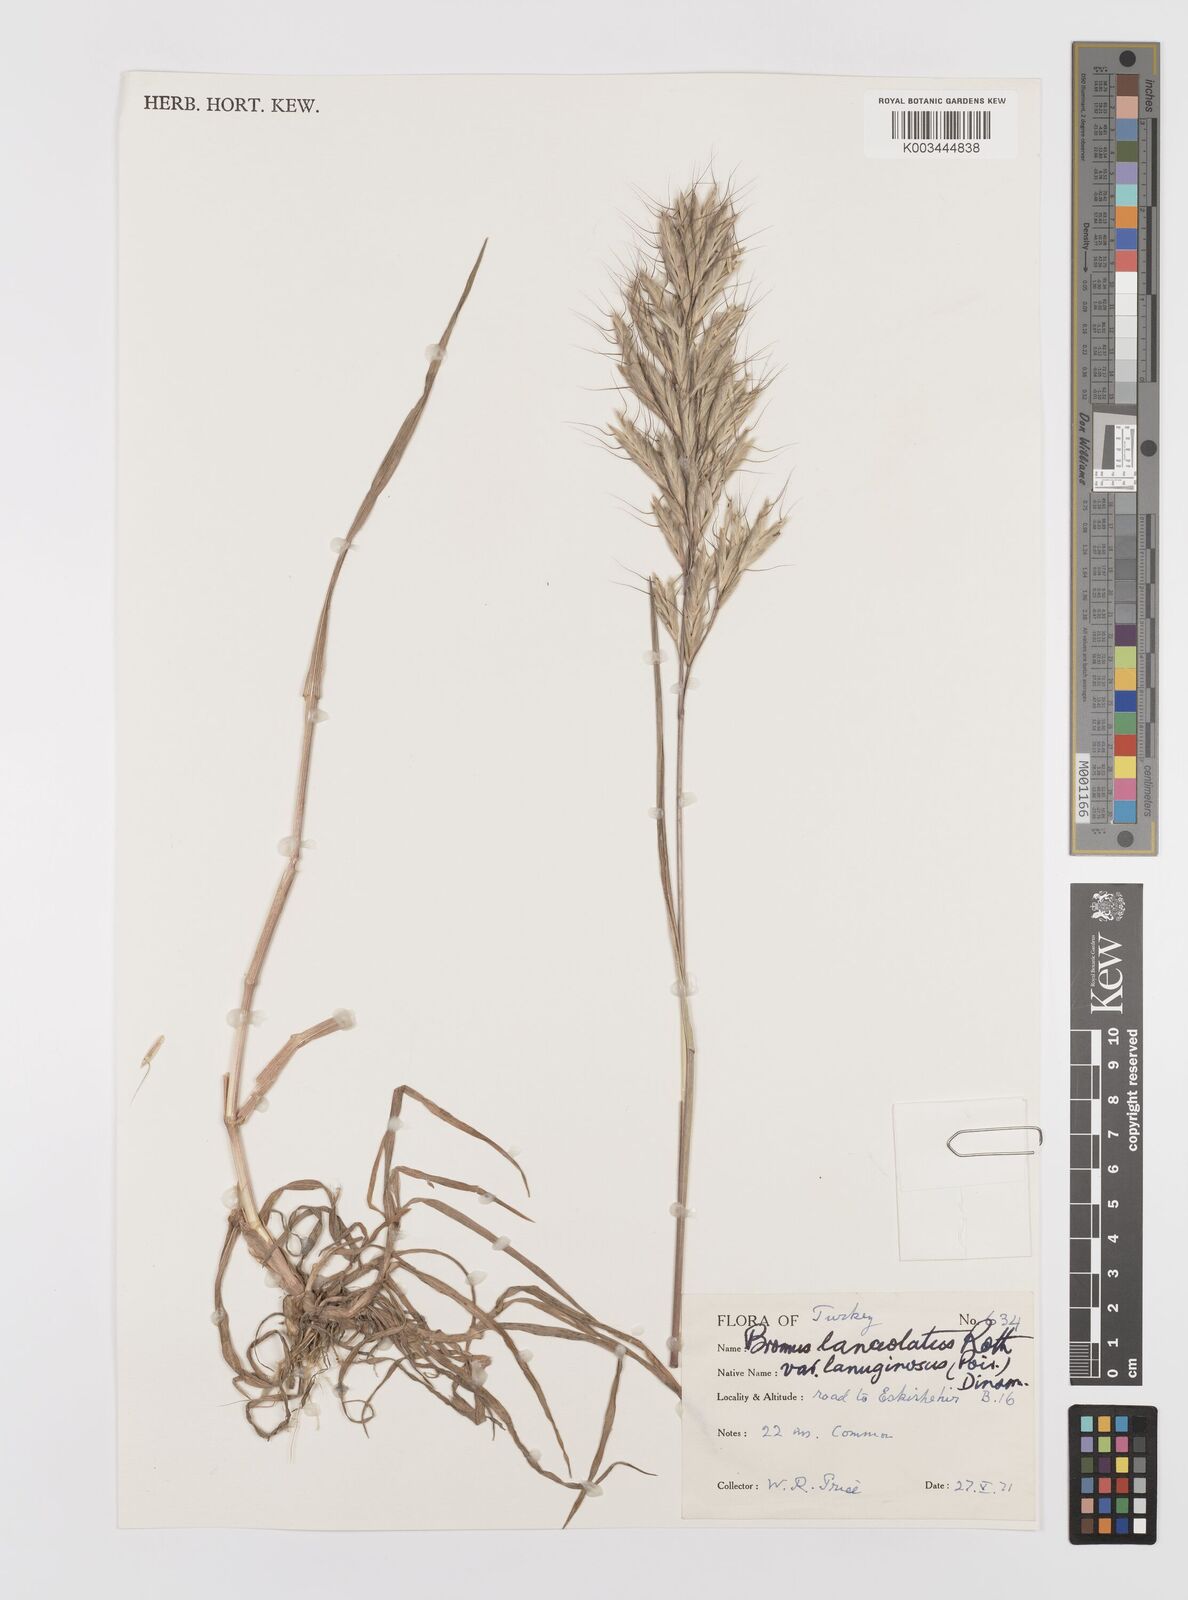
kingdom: Plantae
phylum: Tracheophyta
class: Liliopsida
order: Poales
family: Poaceae
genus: Bromus
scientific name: Bromus lanceolatus
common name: Mediterranean brome
